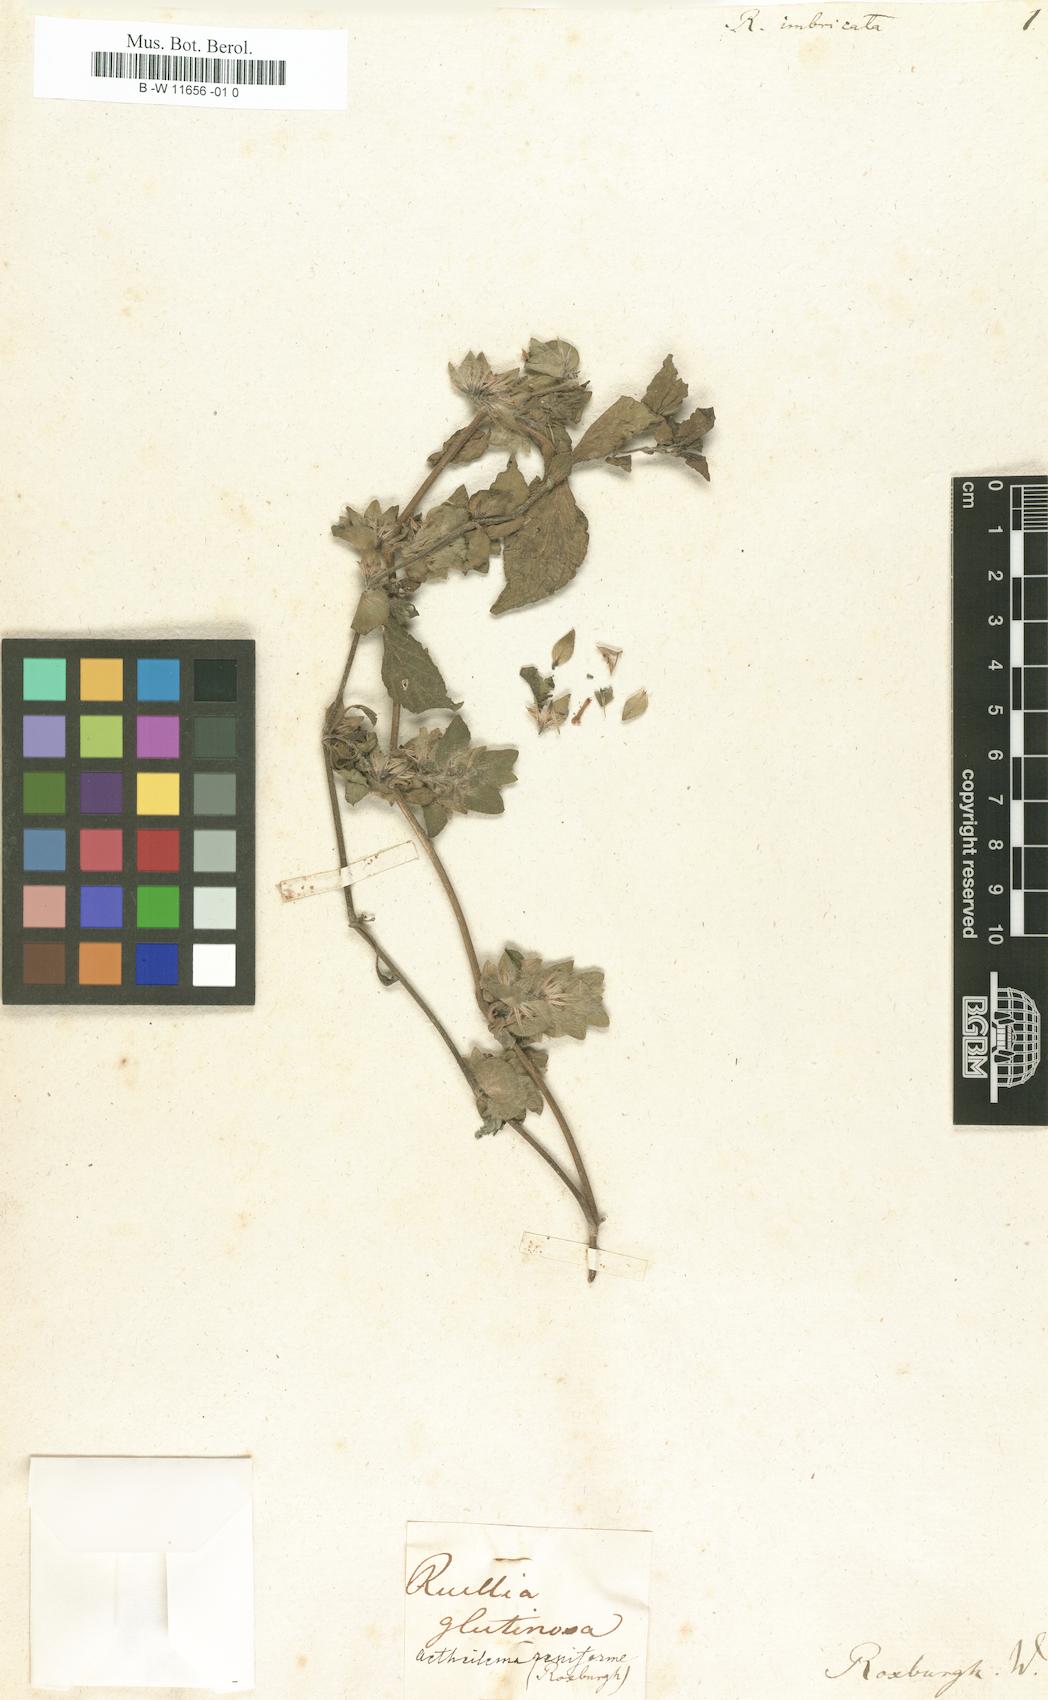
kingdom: Plantae
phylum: Tracheophyta
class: Magnoliopsida
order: Lamiales
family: Acanthaceae
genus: Phaulopsis
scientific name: Phaulopsis imbricata
